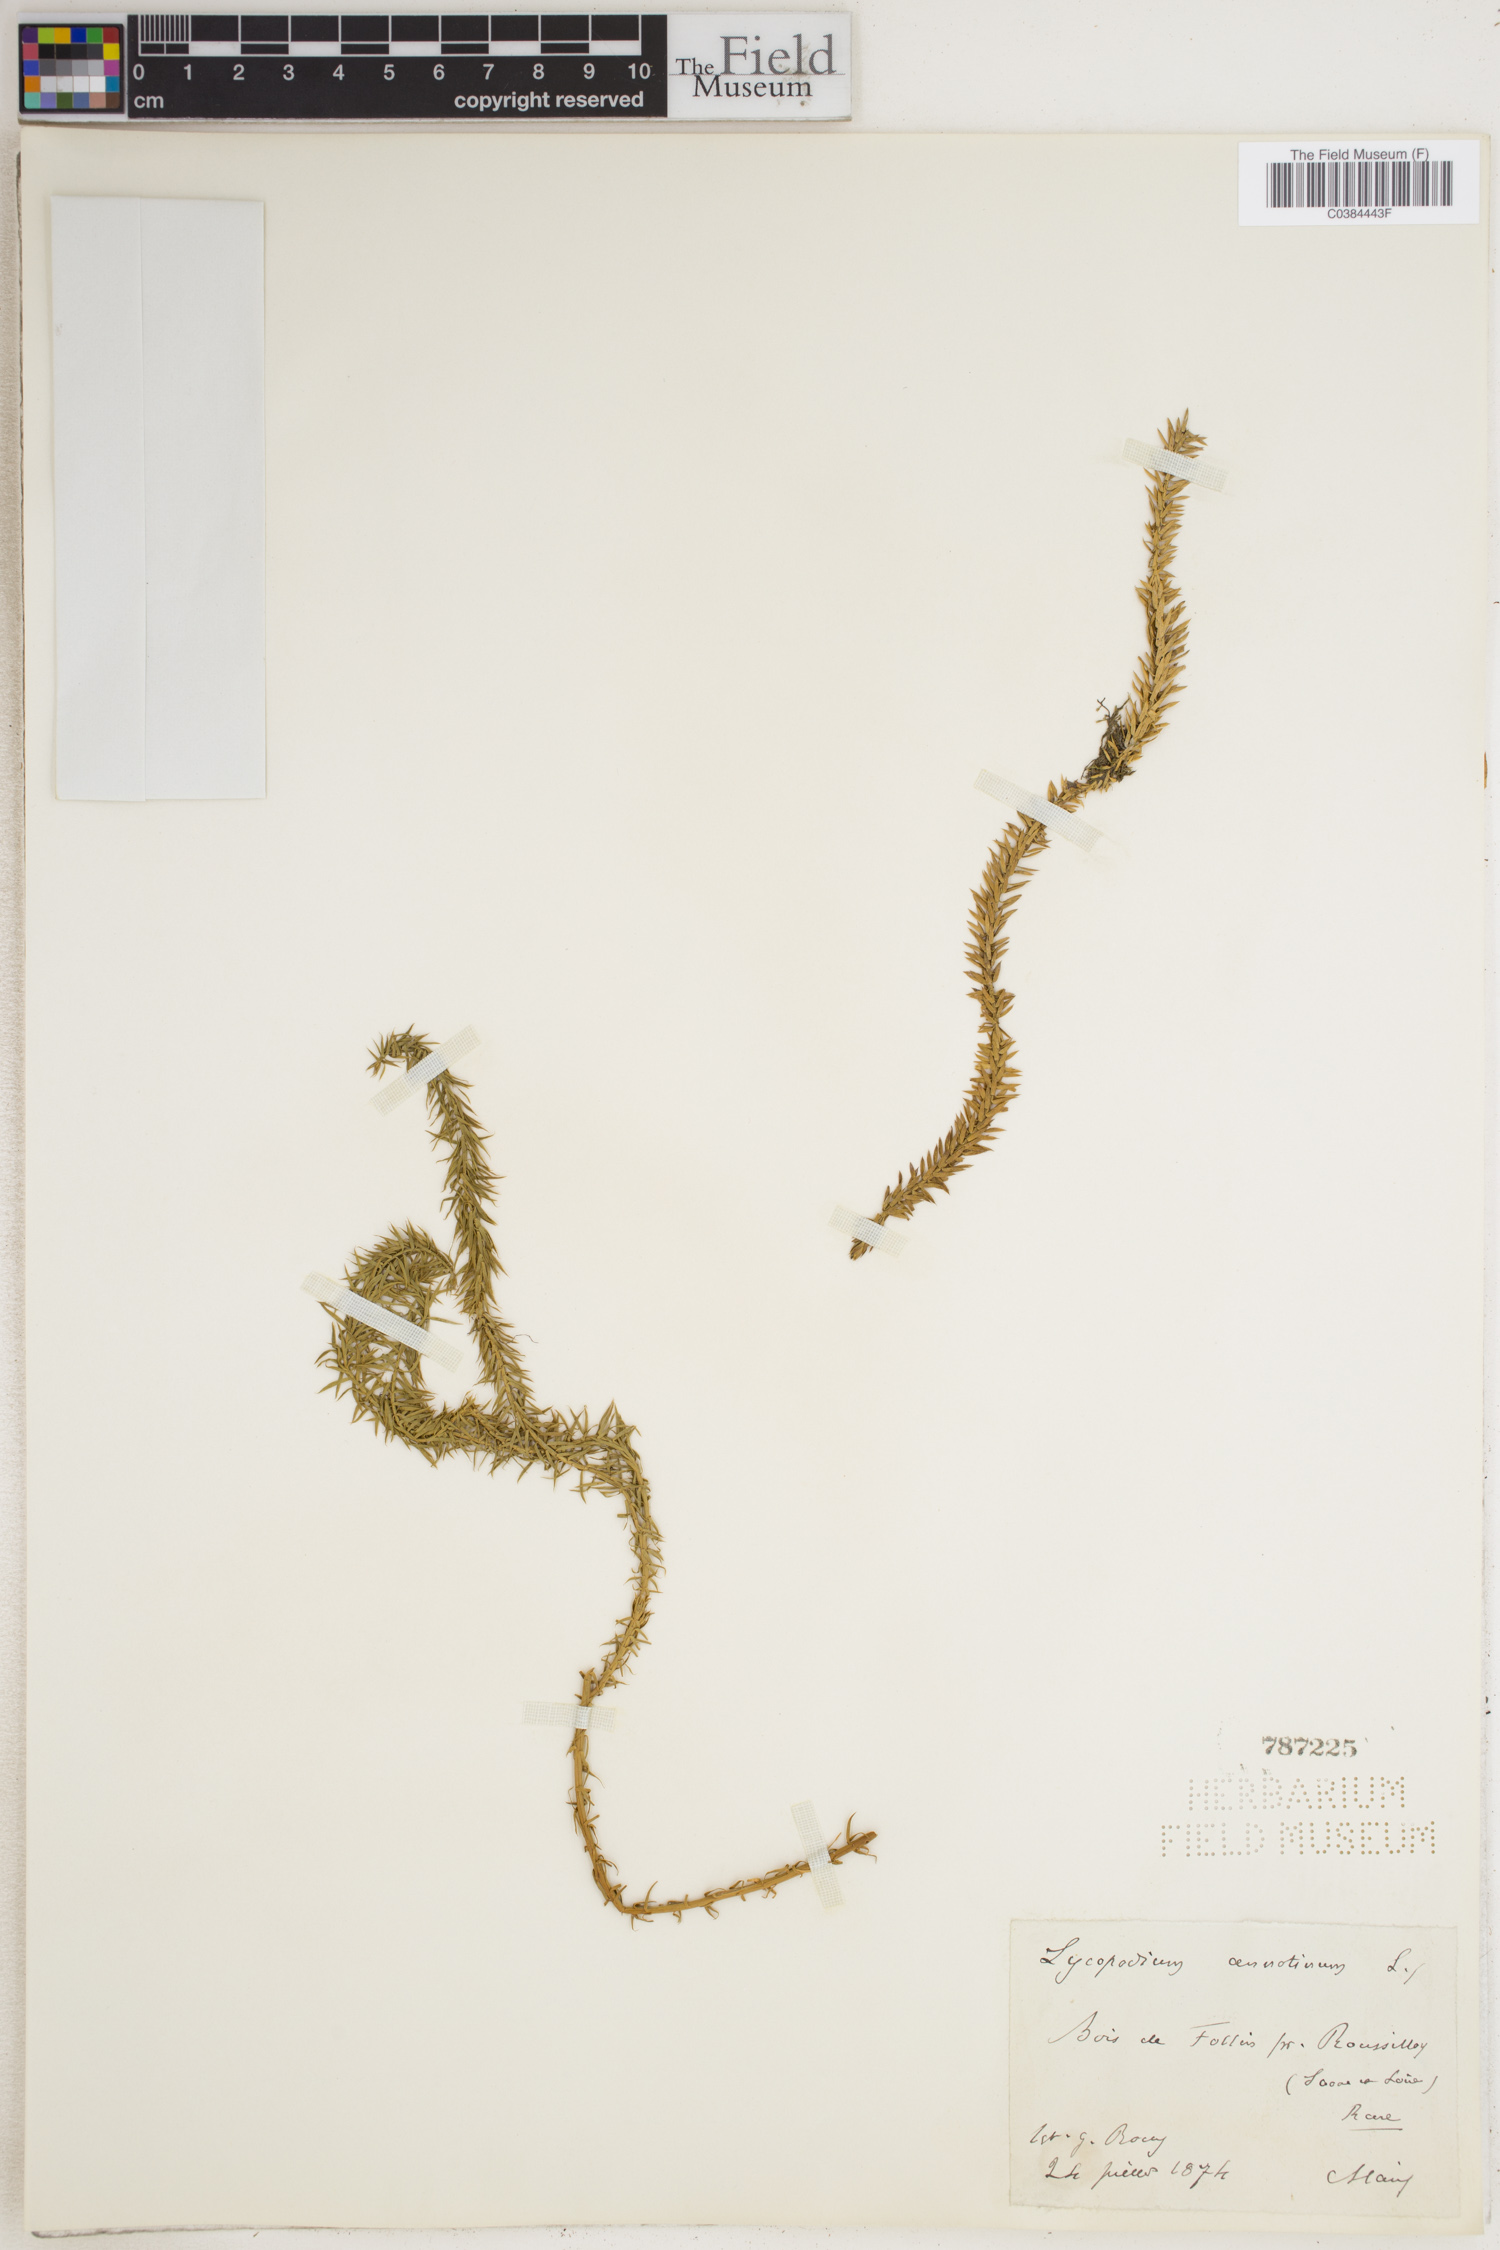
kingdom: Plantae
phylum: Tracheophyta
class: Lycopodiopsida
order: Lycopodiales
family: Lycopodiaceae
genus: Spinulum
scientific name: Spinulum annotinum
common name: Interrupted club-moss
